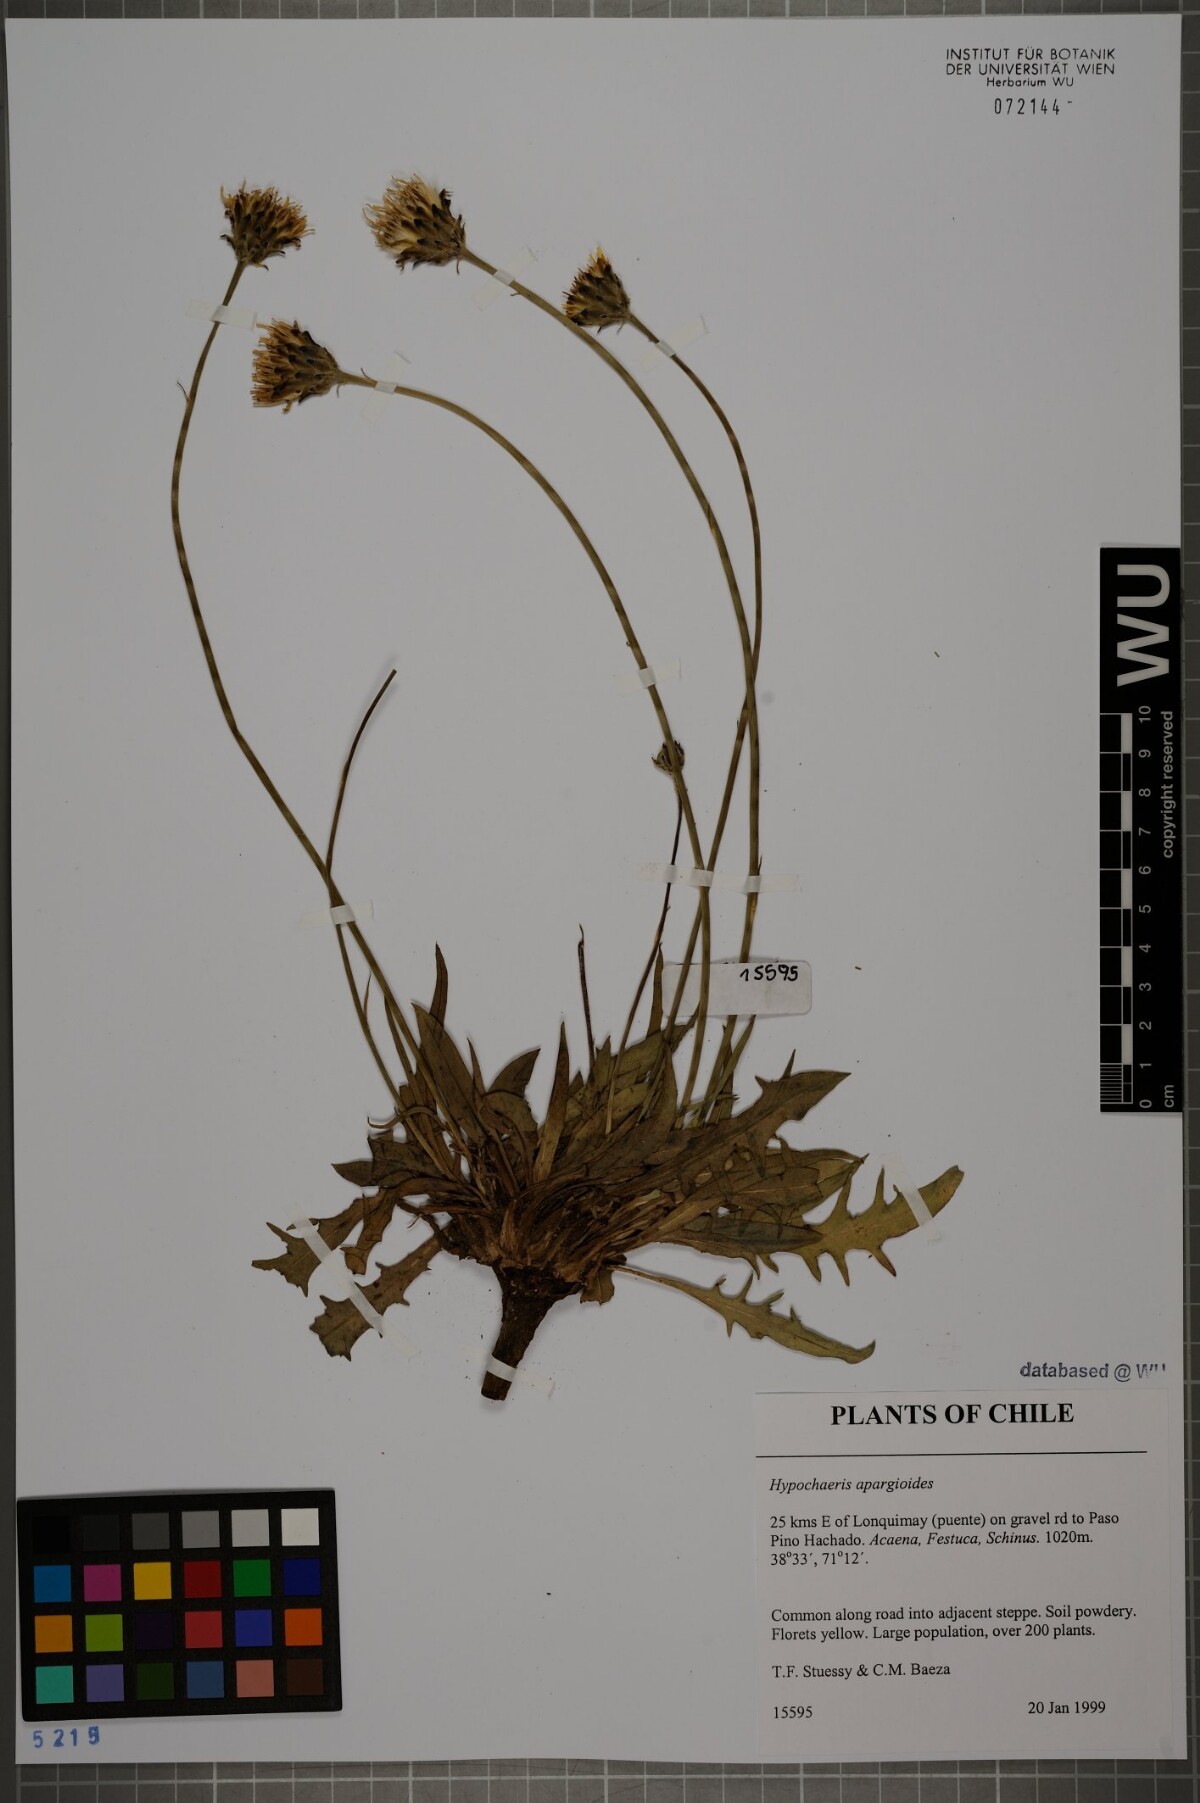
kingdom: Plantae
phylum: Tracheophyta
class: Magnoliopsida
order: Asterales
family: Asteraceae
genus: Hypochaeris
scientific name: Hypochaeris apargioides
